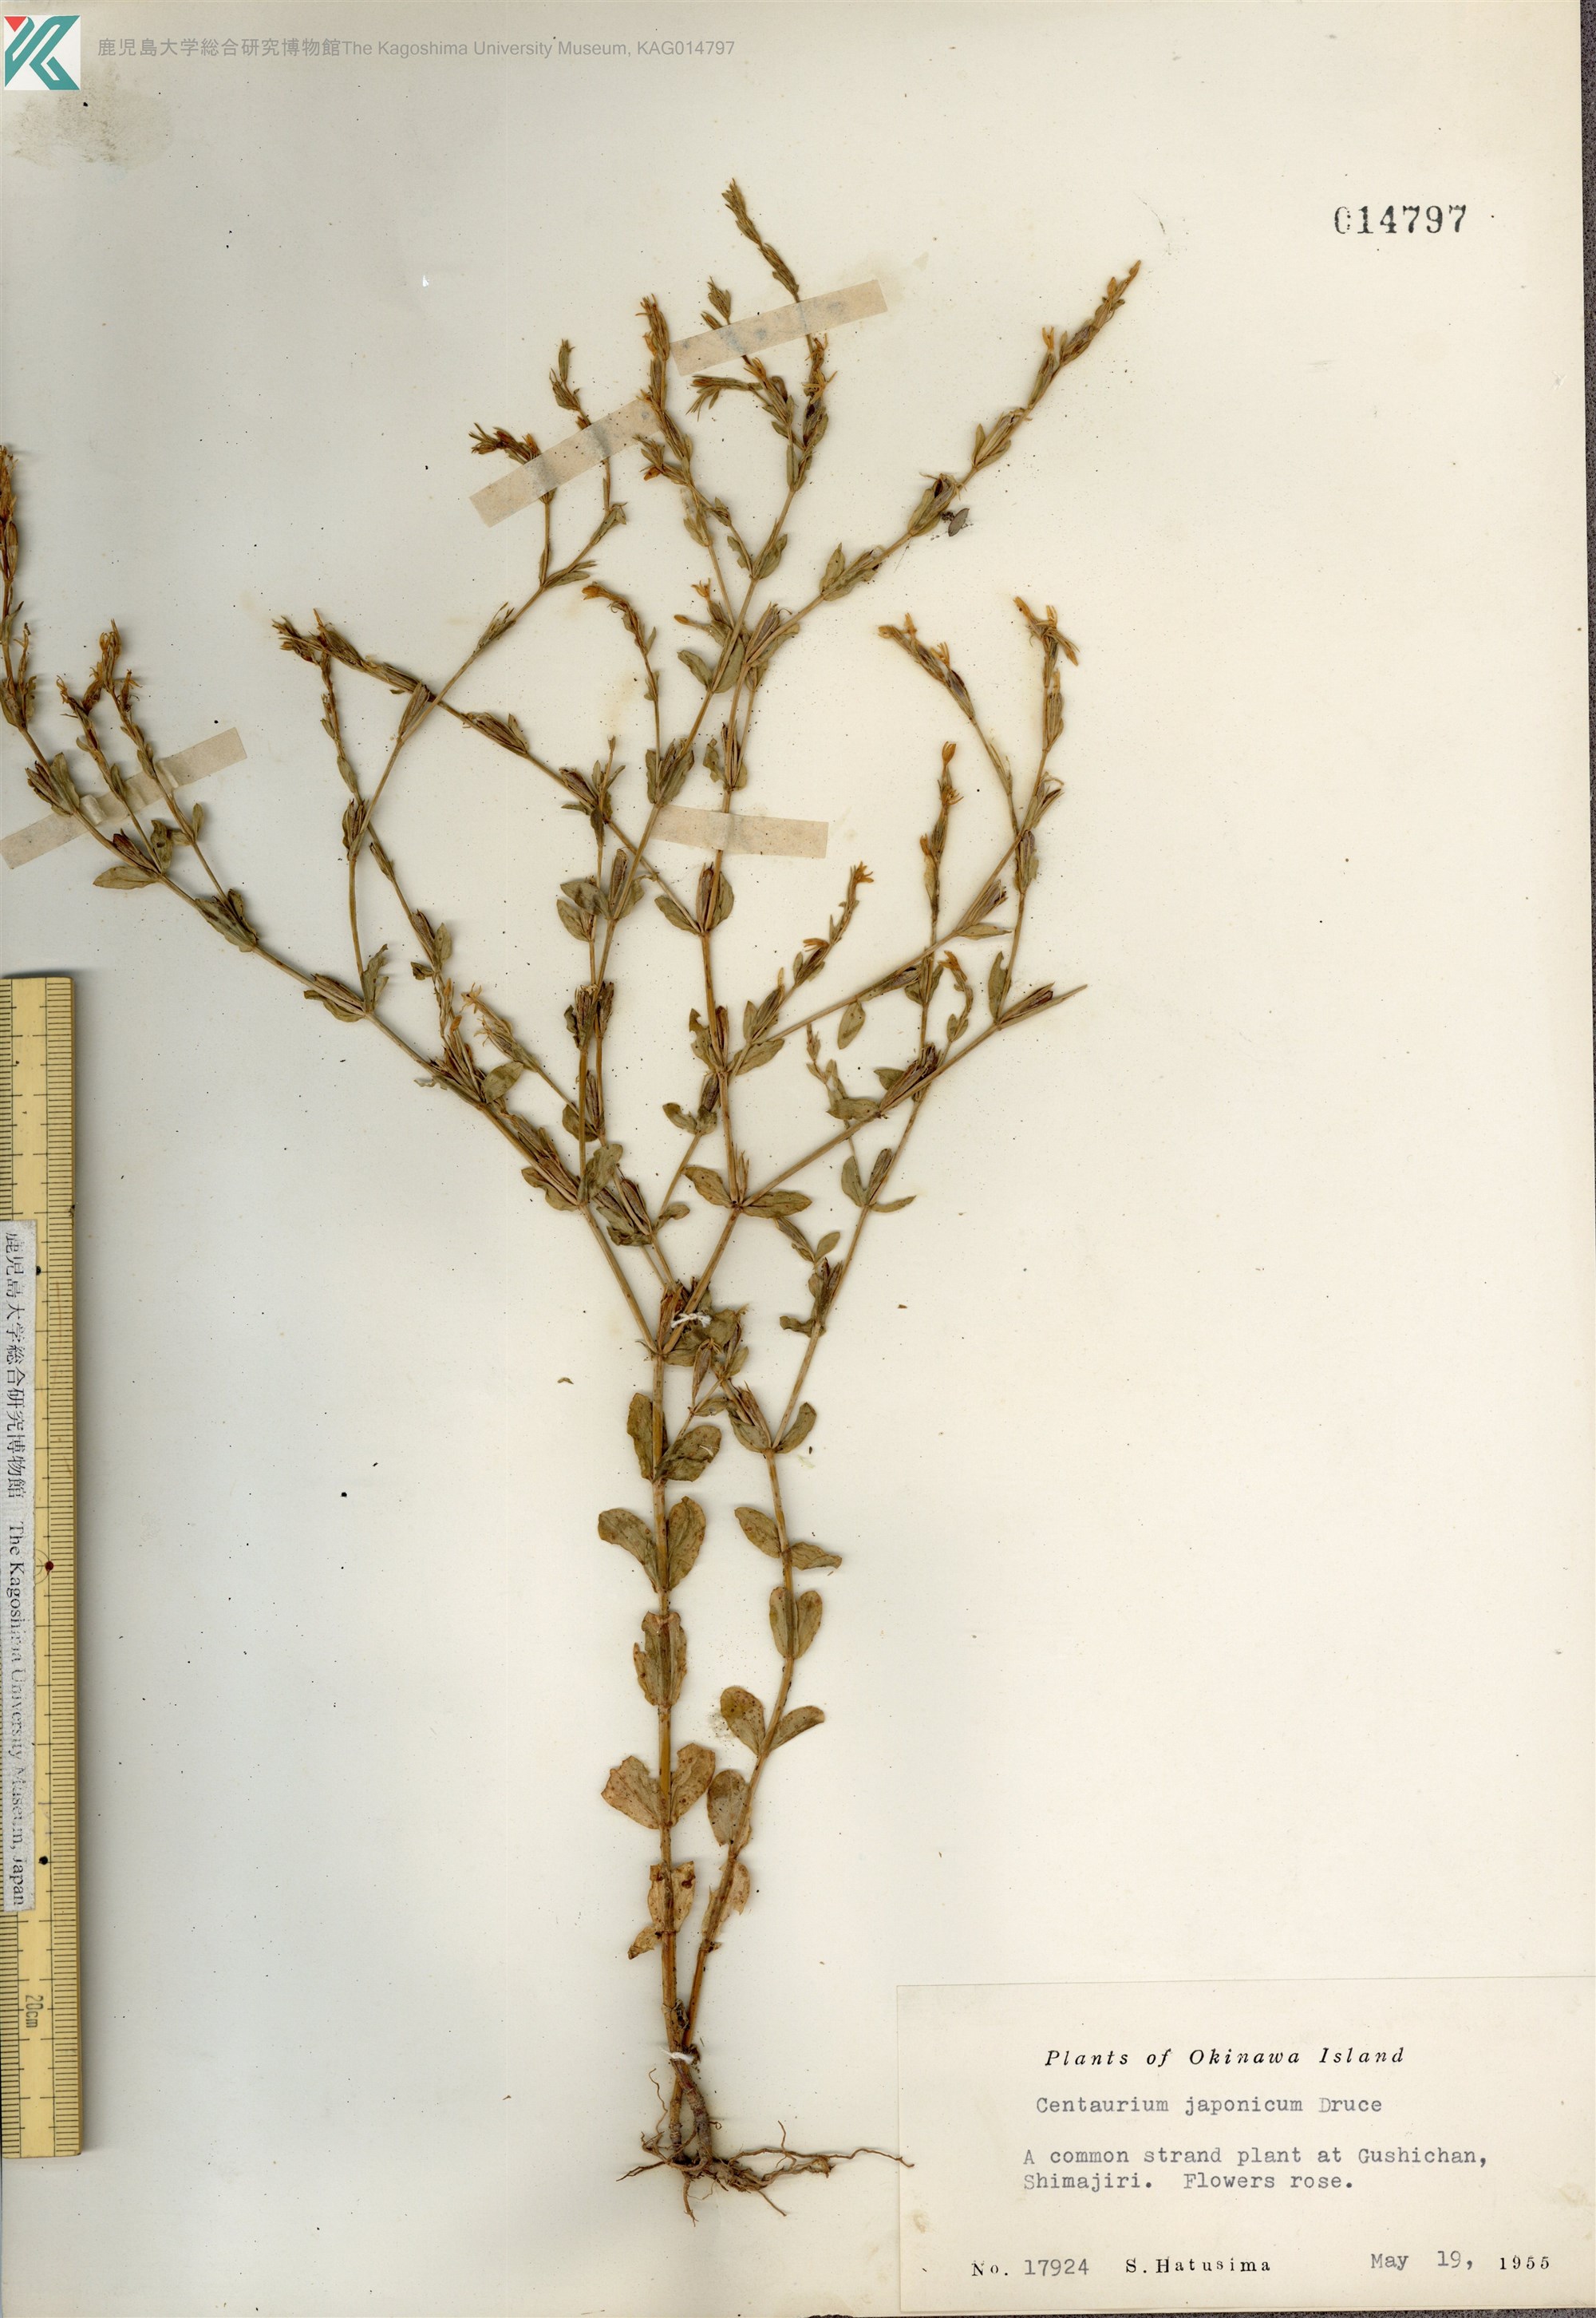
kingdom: Plantae
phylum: Tracheophyta
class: Magnoliopsida
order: Gentianales
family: Gentianaceae
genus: Schenkia
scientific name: Schenkia japonica
